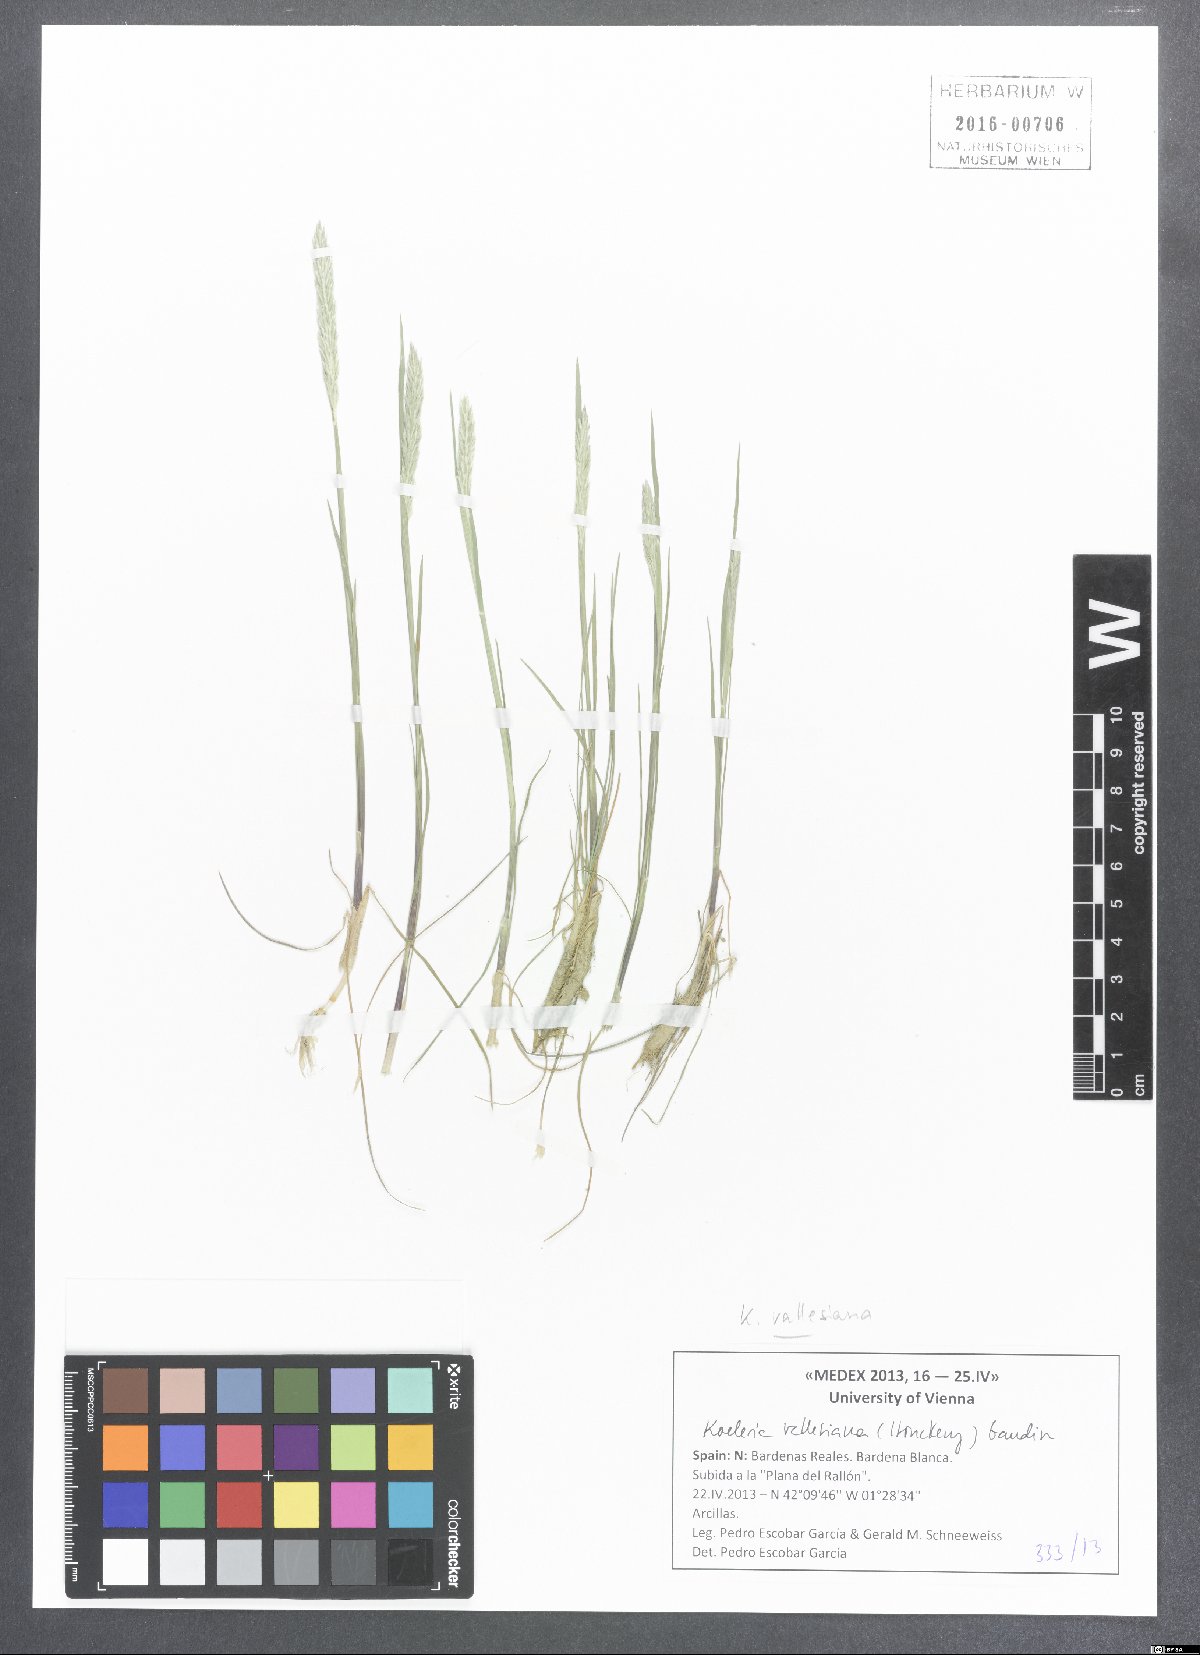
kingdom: Plantae
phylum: Tracheophyta
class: Liliopsida
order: Poales
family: Poaceae
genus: Koeleria
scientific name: Koeleria vallesiana
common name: Somerset hair-grass
